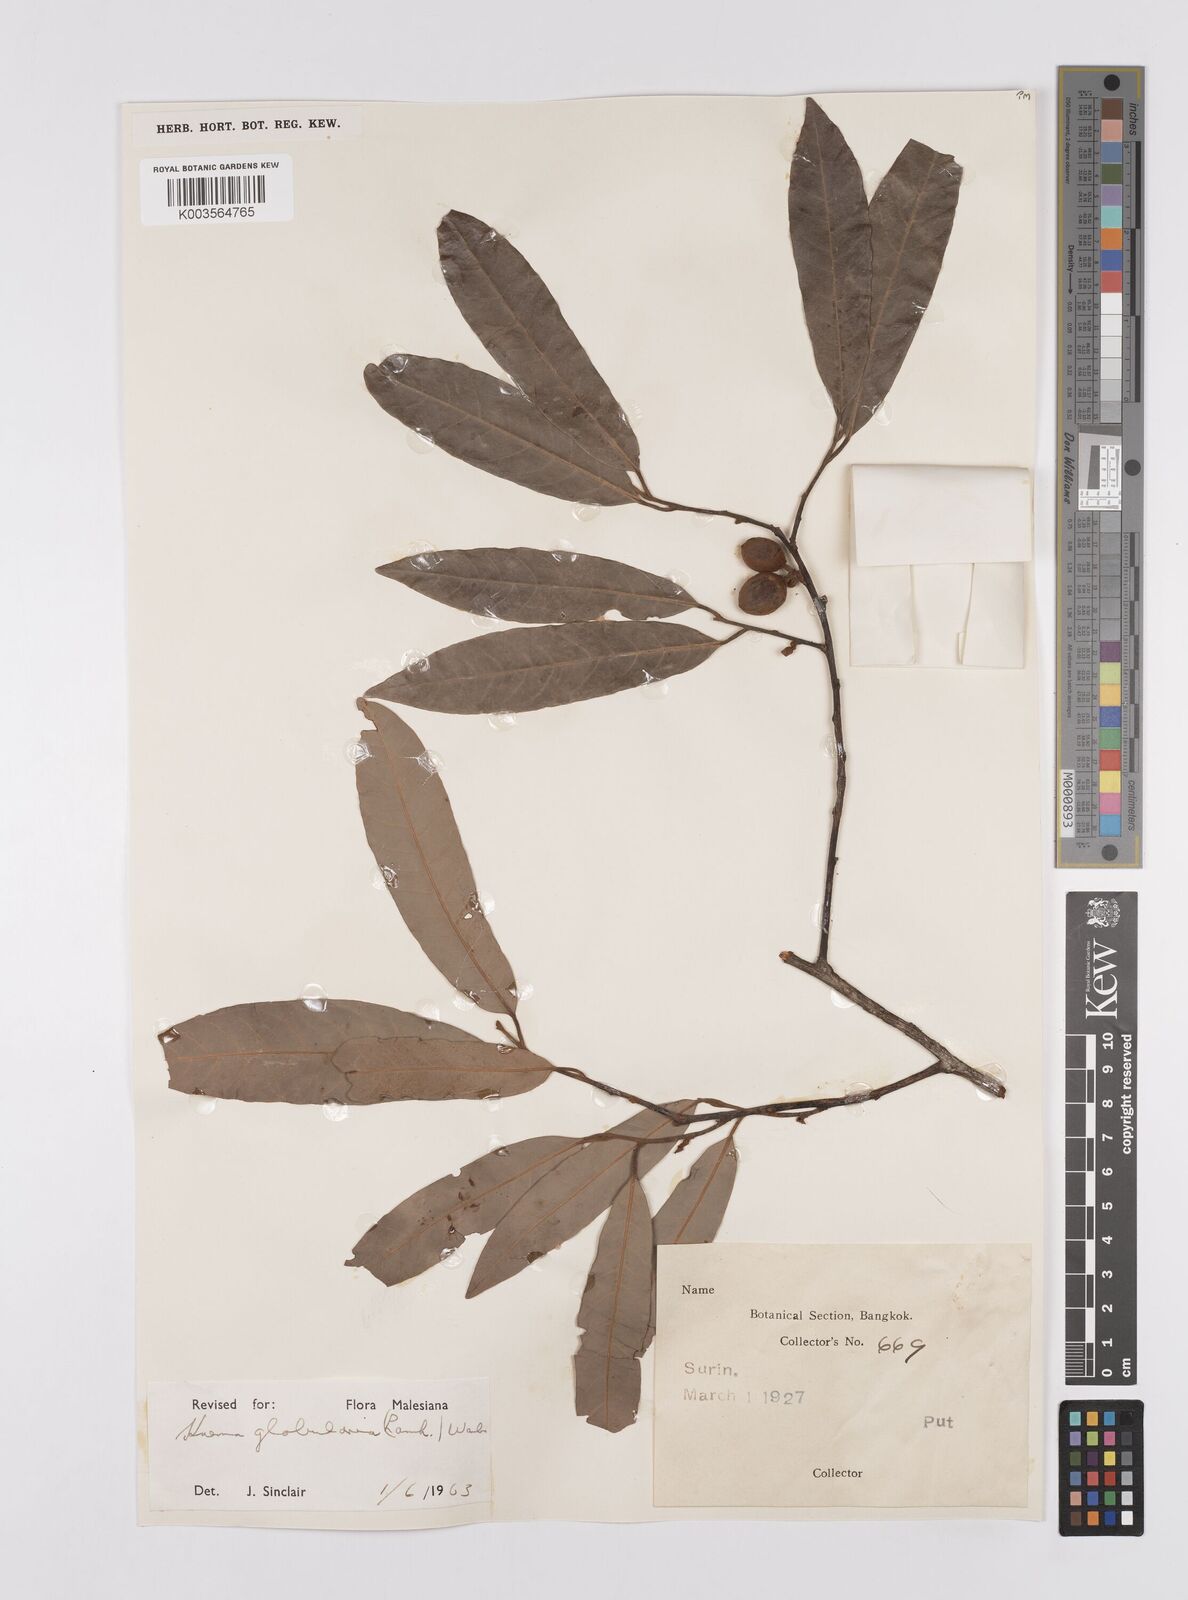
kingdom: Plantae
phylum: Tracheophyta
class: Magnoliopsida
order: Magnoliales
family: Myristicaceae
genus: Knema
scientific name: Knema globularia
